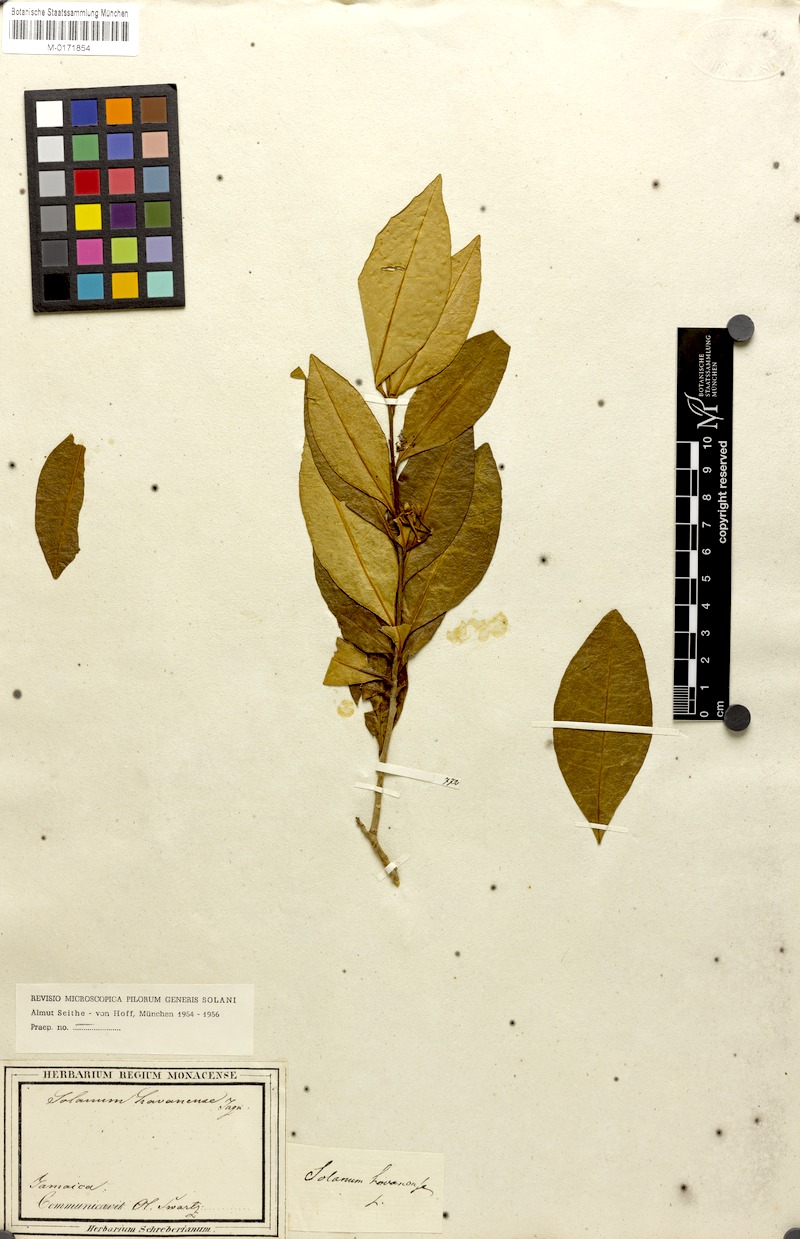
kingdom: Plantae
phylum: Tracheophyta
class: Magnoliopsida
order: Solanales
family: Solanaceae
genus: Solanum
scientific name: Solanum havanense
